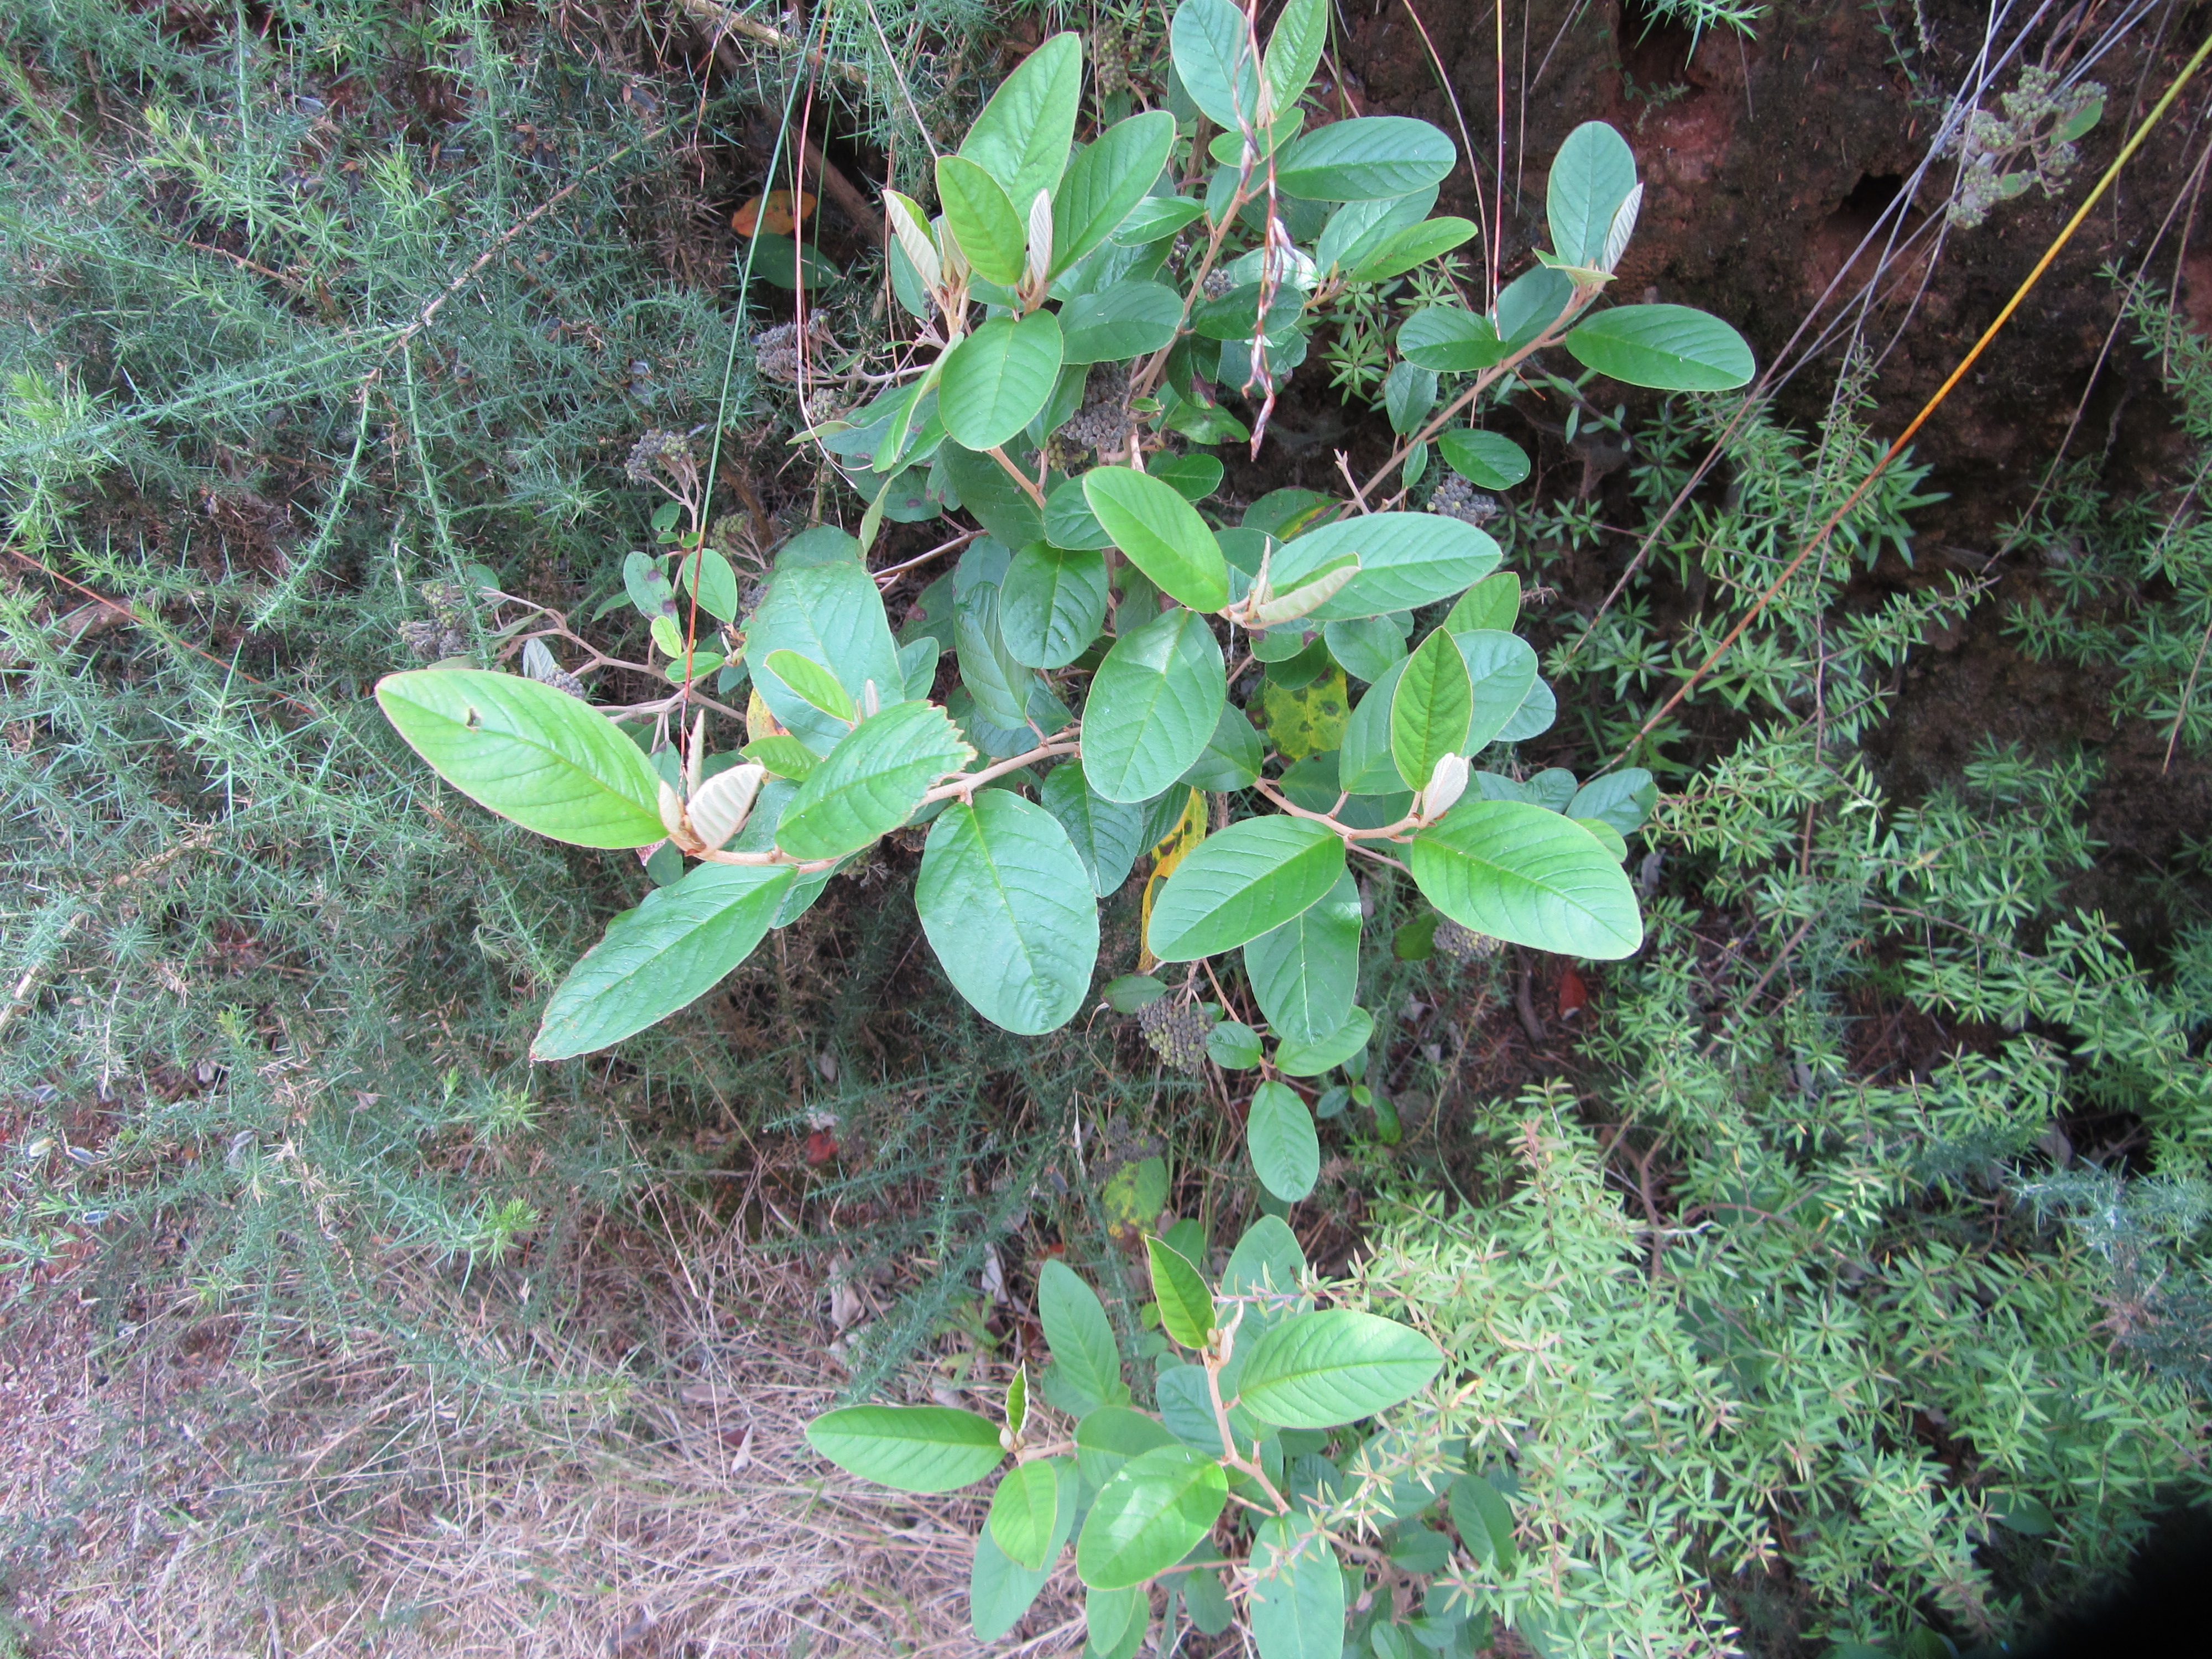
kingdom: Plantae
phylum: Tracheophyta
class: Magnoliopsida
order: Rosales
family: Rhamnaceae
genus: Pomaderris
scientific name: Pomaderris kumeraho
